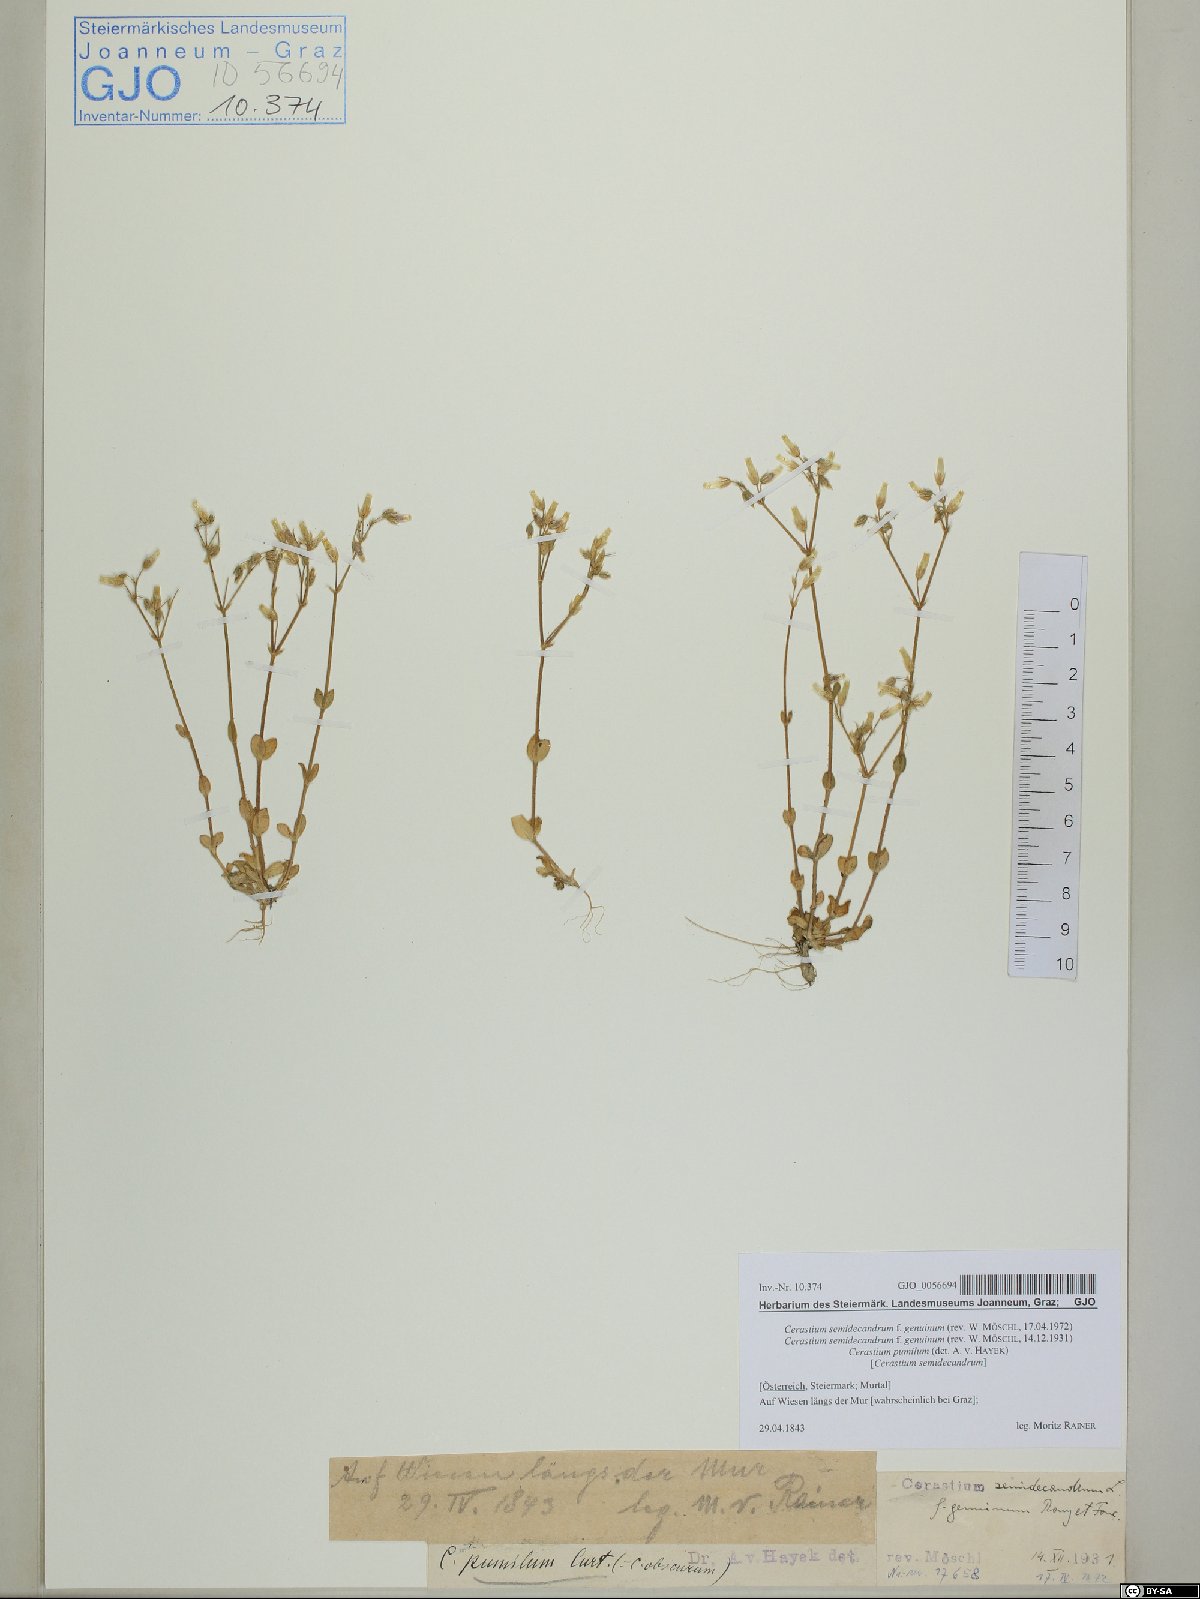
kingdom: Plantae
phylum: Tracheophyta
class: Magnoliopsida
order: Caryophyllales
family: Caryophyllaceae
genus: Cerastium
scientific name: Cerastium semidecandrum
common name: Little mouse-ear
